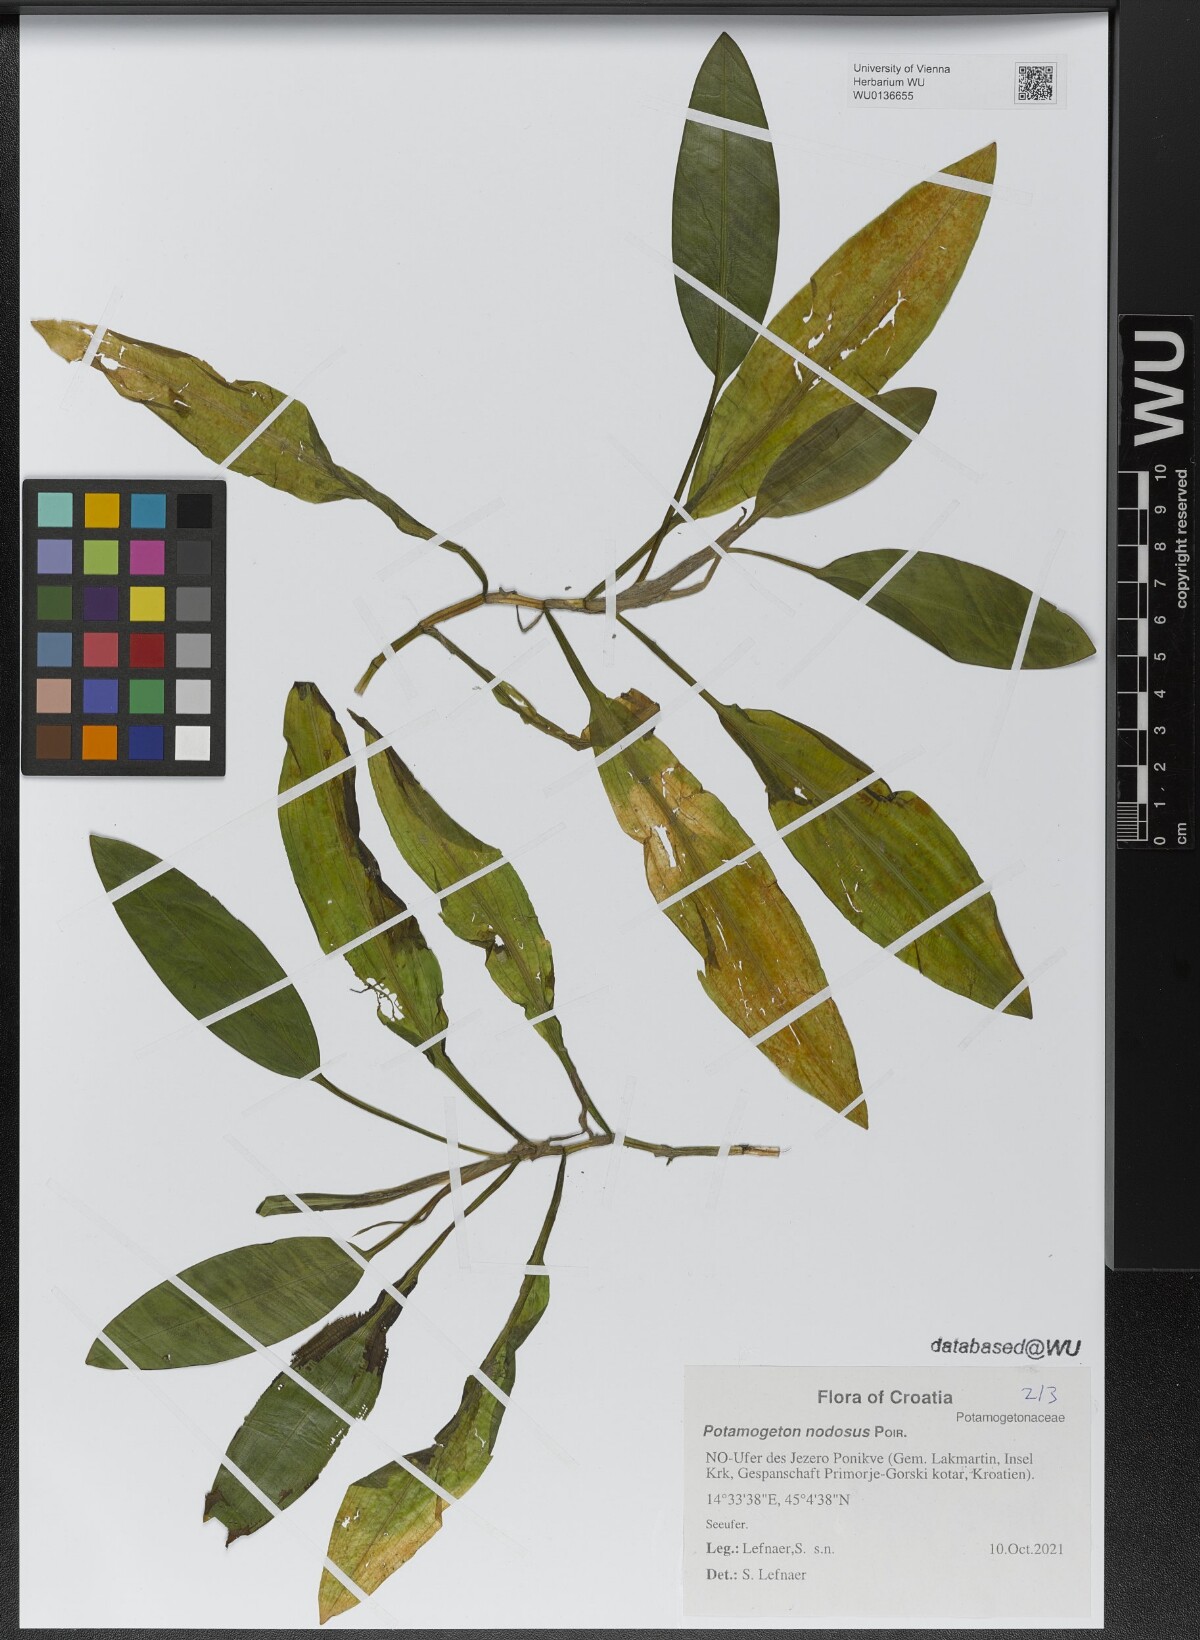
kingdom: Plantae
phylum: Tracheophyta
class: Liliopsida
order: Alismatales
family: Potamogetonaceae
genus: Potamogeton
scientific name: Potamogeton nodosus
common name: Loddon pondweed
